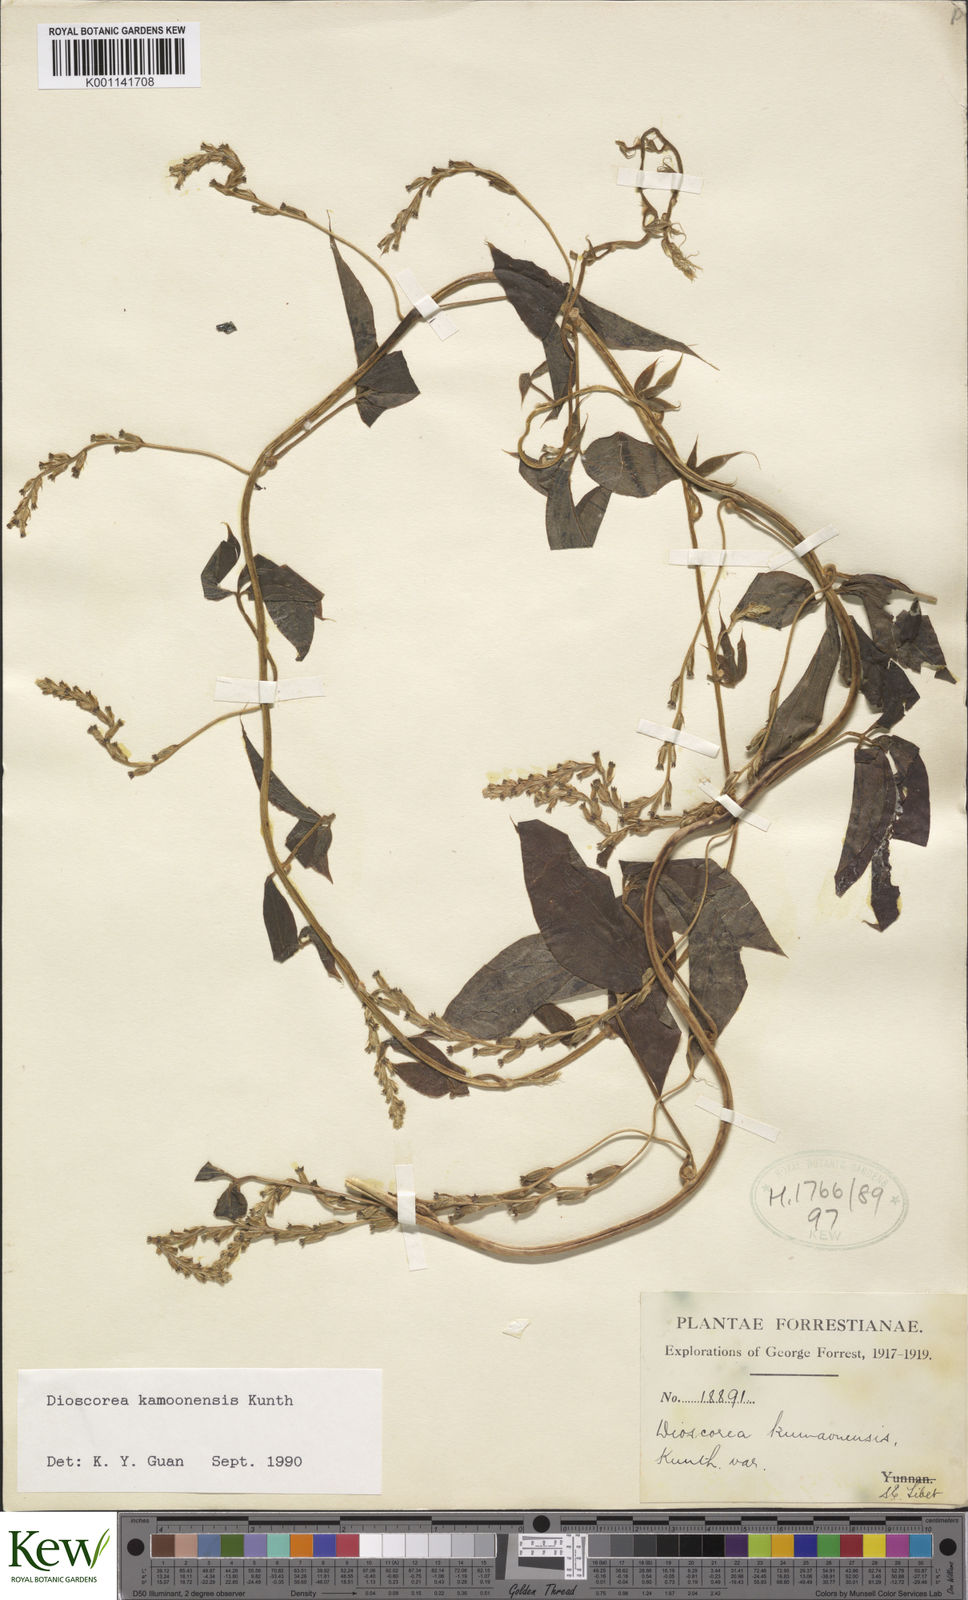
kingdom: Plantae
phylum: Tracheophyta
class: Liliopsida
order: Dioscoreales
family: Dioscoreaceae
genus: Dioscorea
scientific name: Dioscorea kamoonensis
